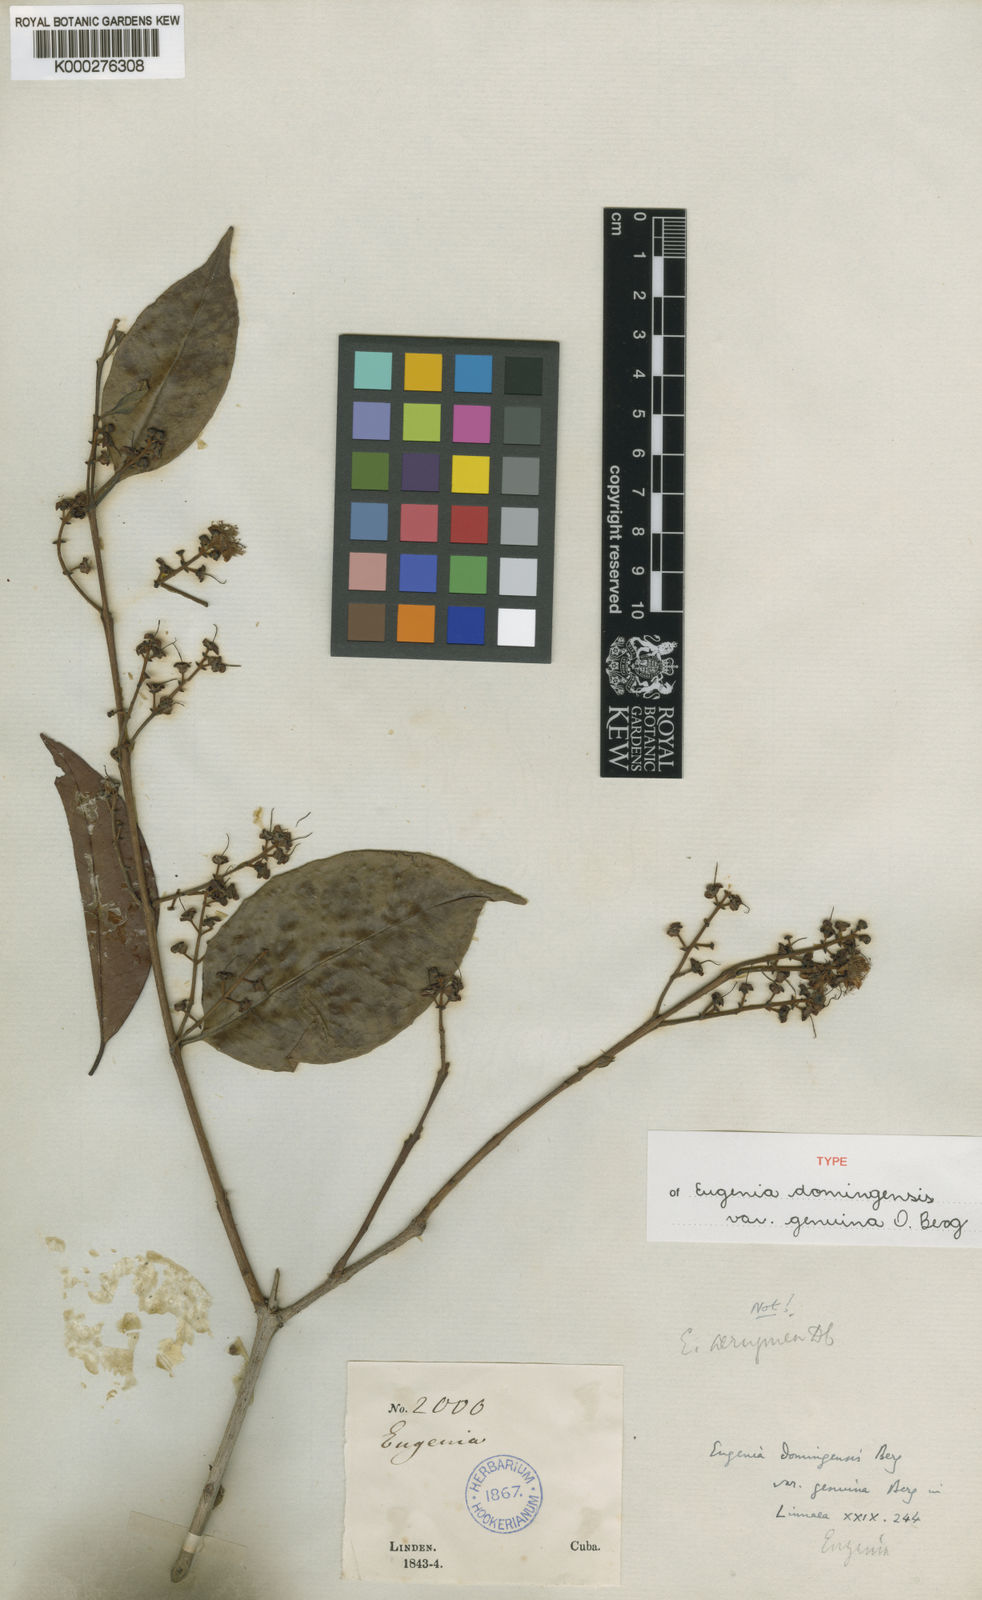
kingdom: Plantae
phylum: Tracheophyta
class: Magnoliopsida
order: Myrtales
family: Myrtaceae
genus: Eugenia
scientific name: Eugenia domingensis
